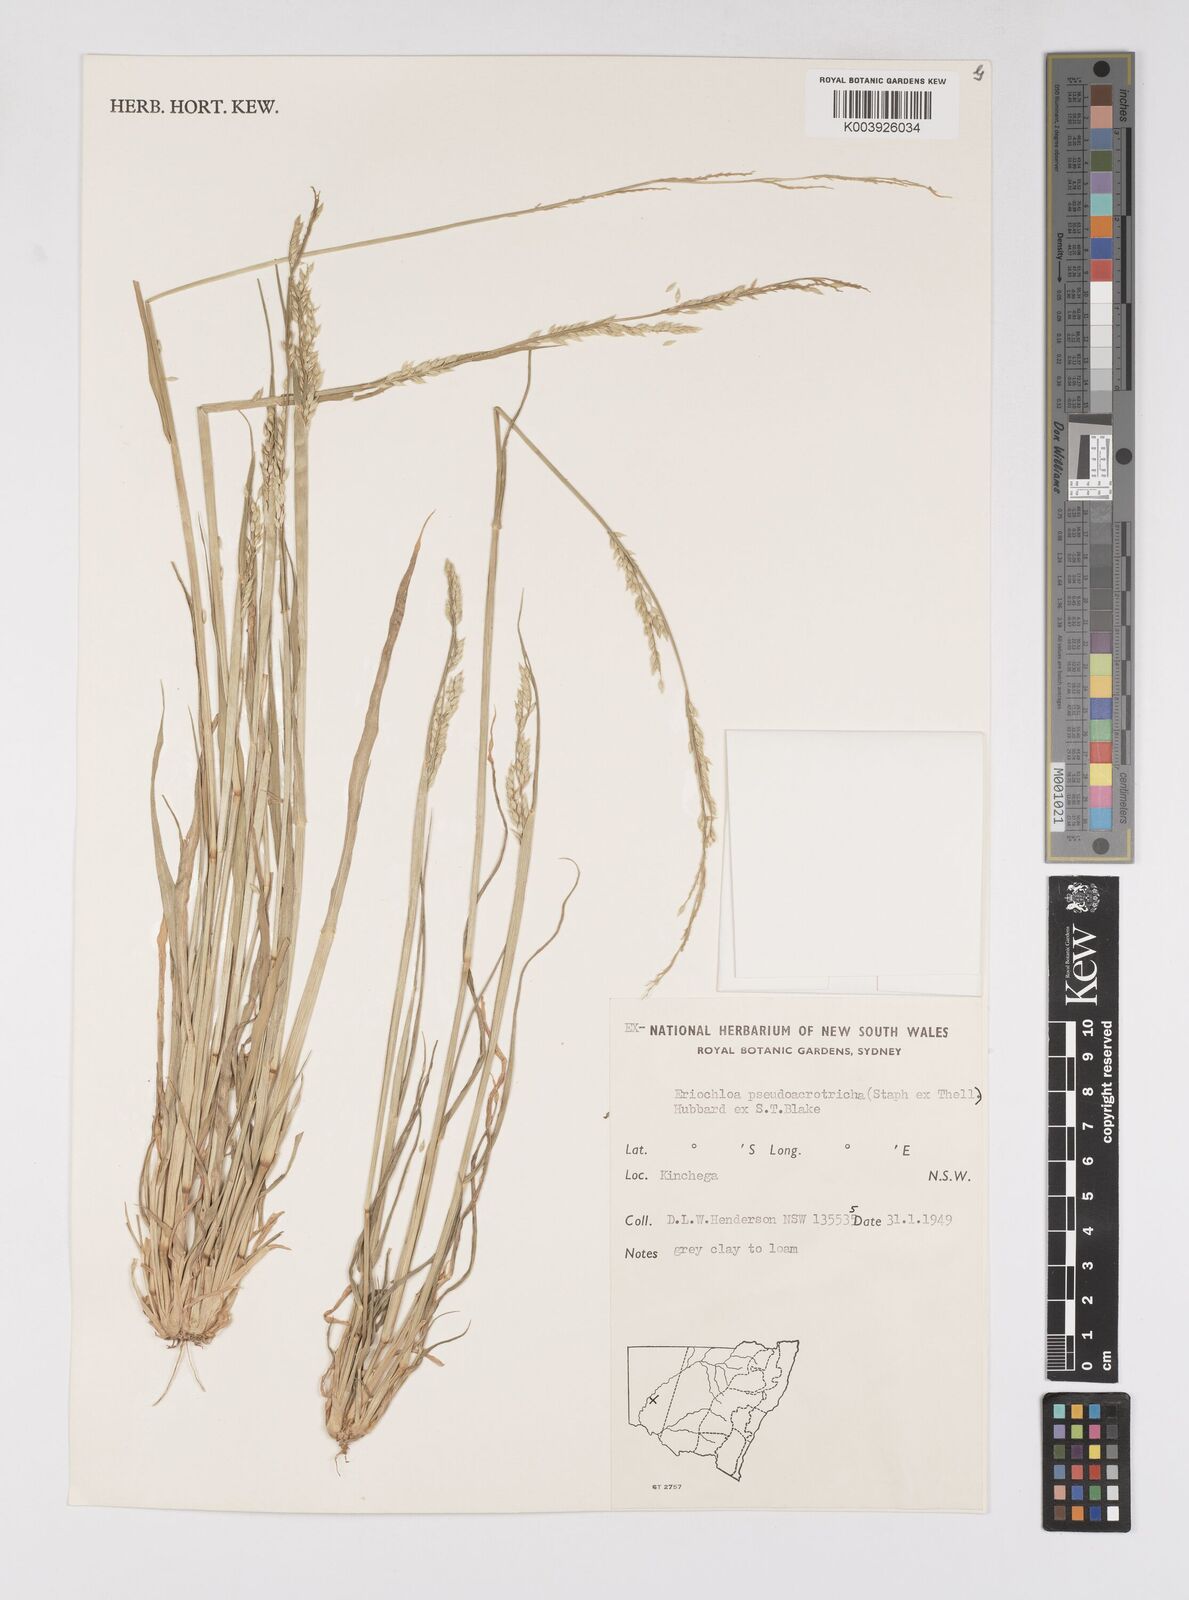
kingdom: Plantae
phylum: Tracheophyta
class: Liliopsida
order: Poales
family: Poaceae
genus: Eriochloa
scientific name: Eriochloa pseudoacrotricha
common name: Perennial cup-grass
